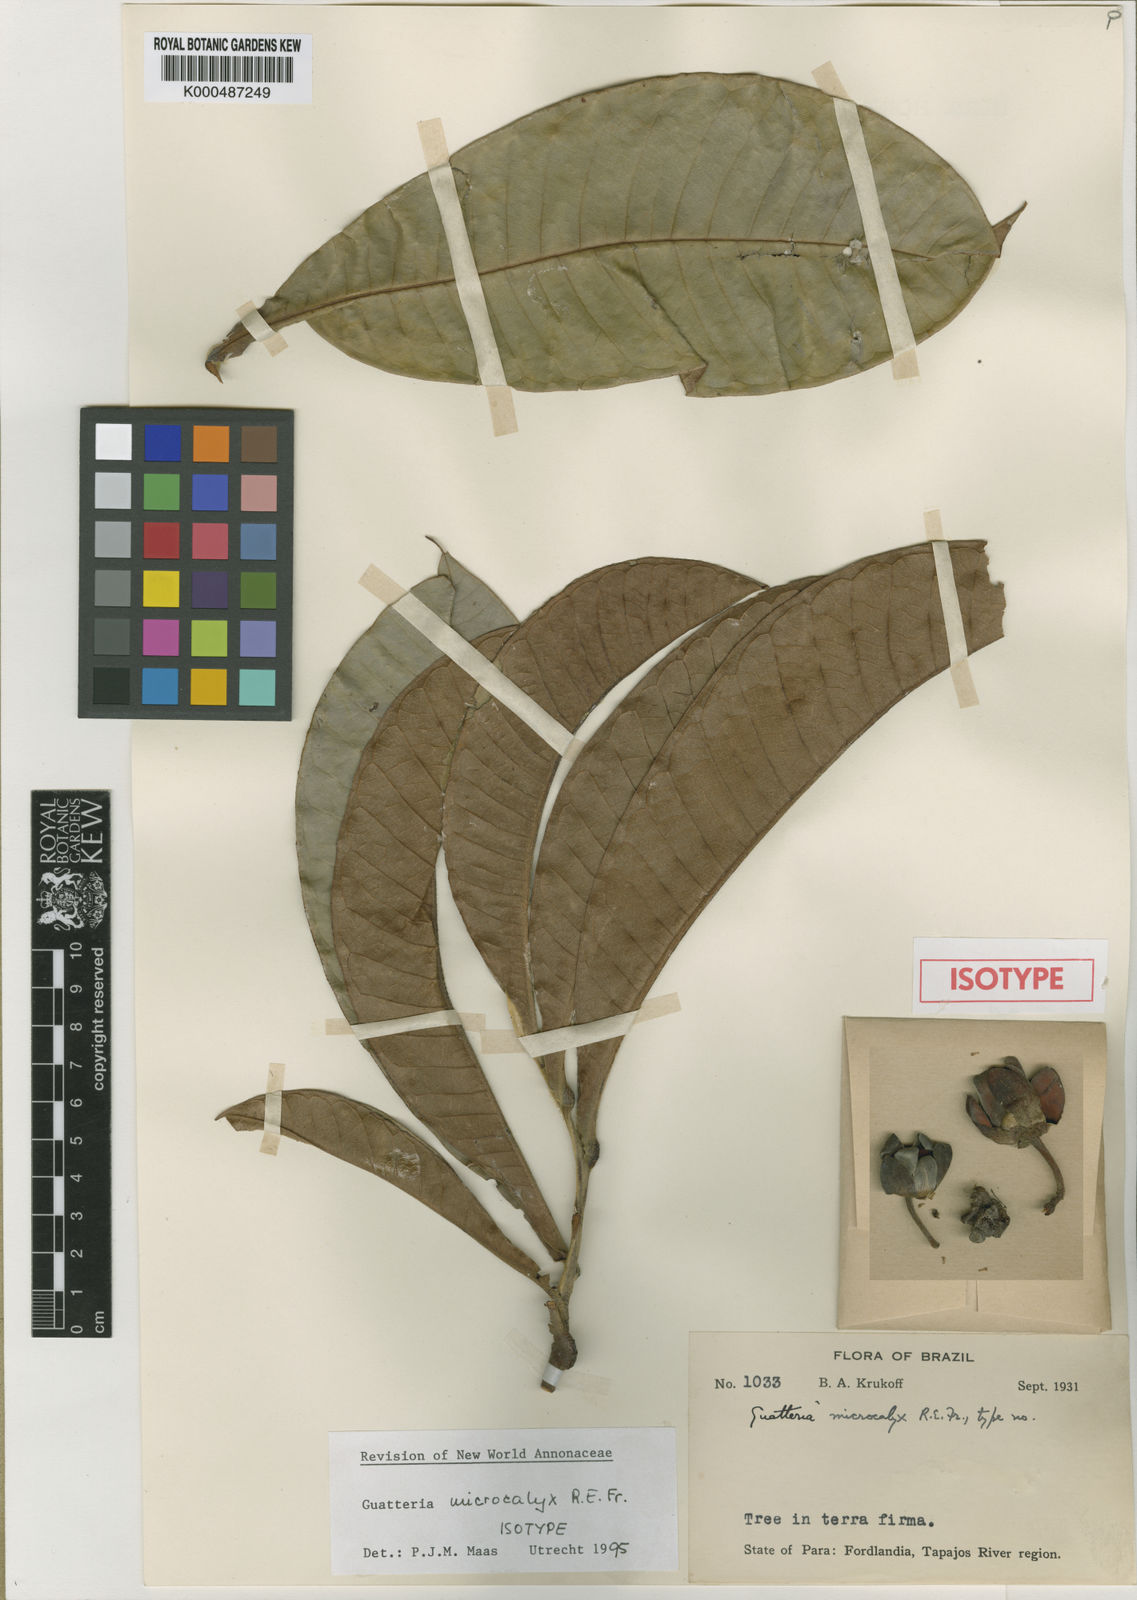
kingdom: Plantae
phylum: Tracheophyta
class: Magnoliopsida
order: Magnoliales
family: Annonaceae
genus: Guatteria
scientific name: Guatteria
